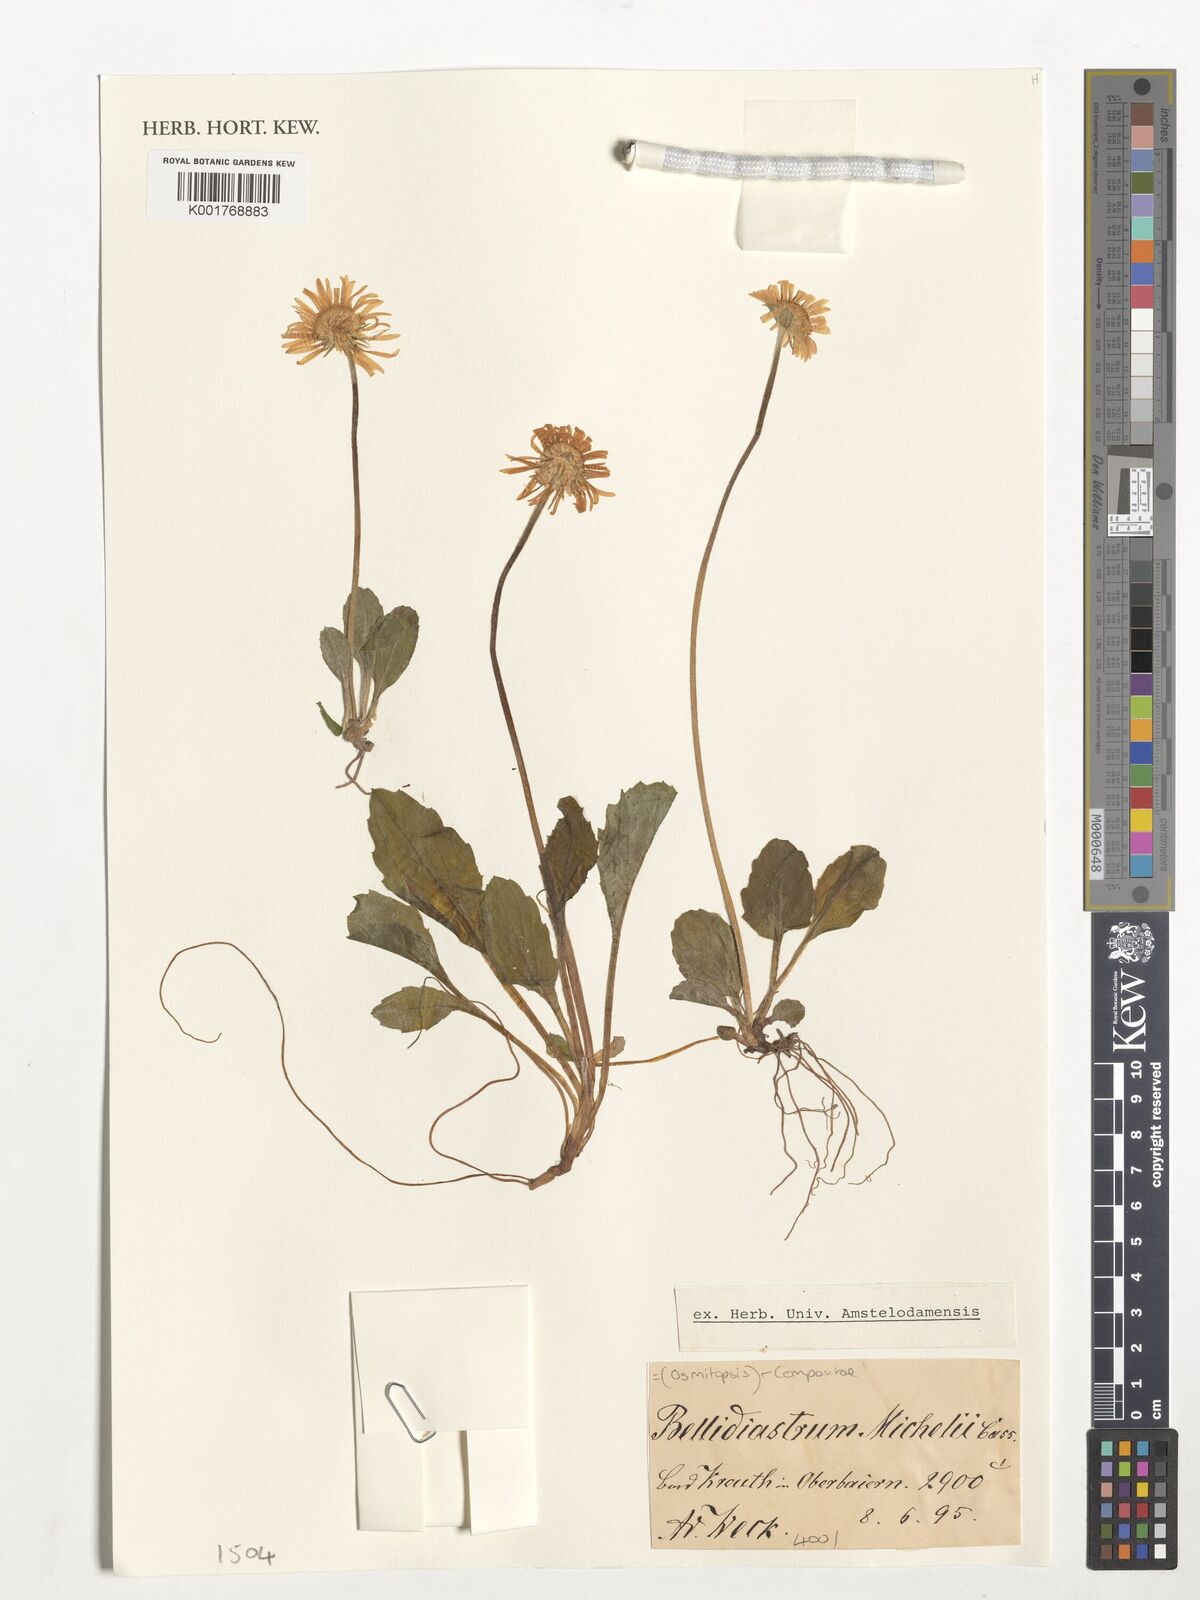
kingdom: Plantae
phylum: Tracheophyta
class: Magnoliopsida
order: Asterales
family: Asteraceae
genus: Osmitopsis
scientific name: Osmitopsis
